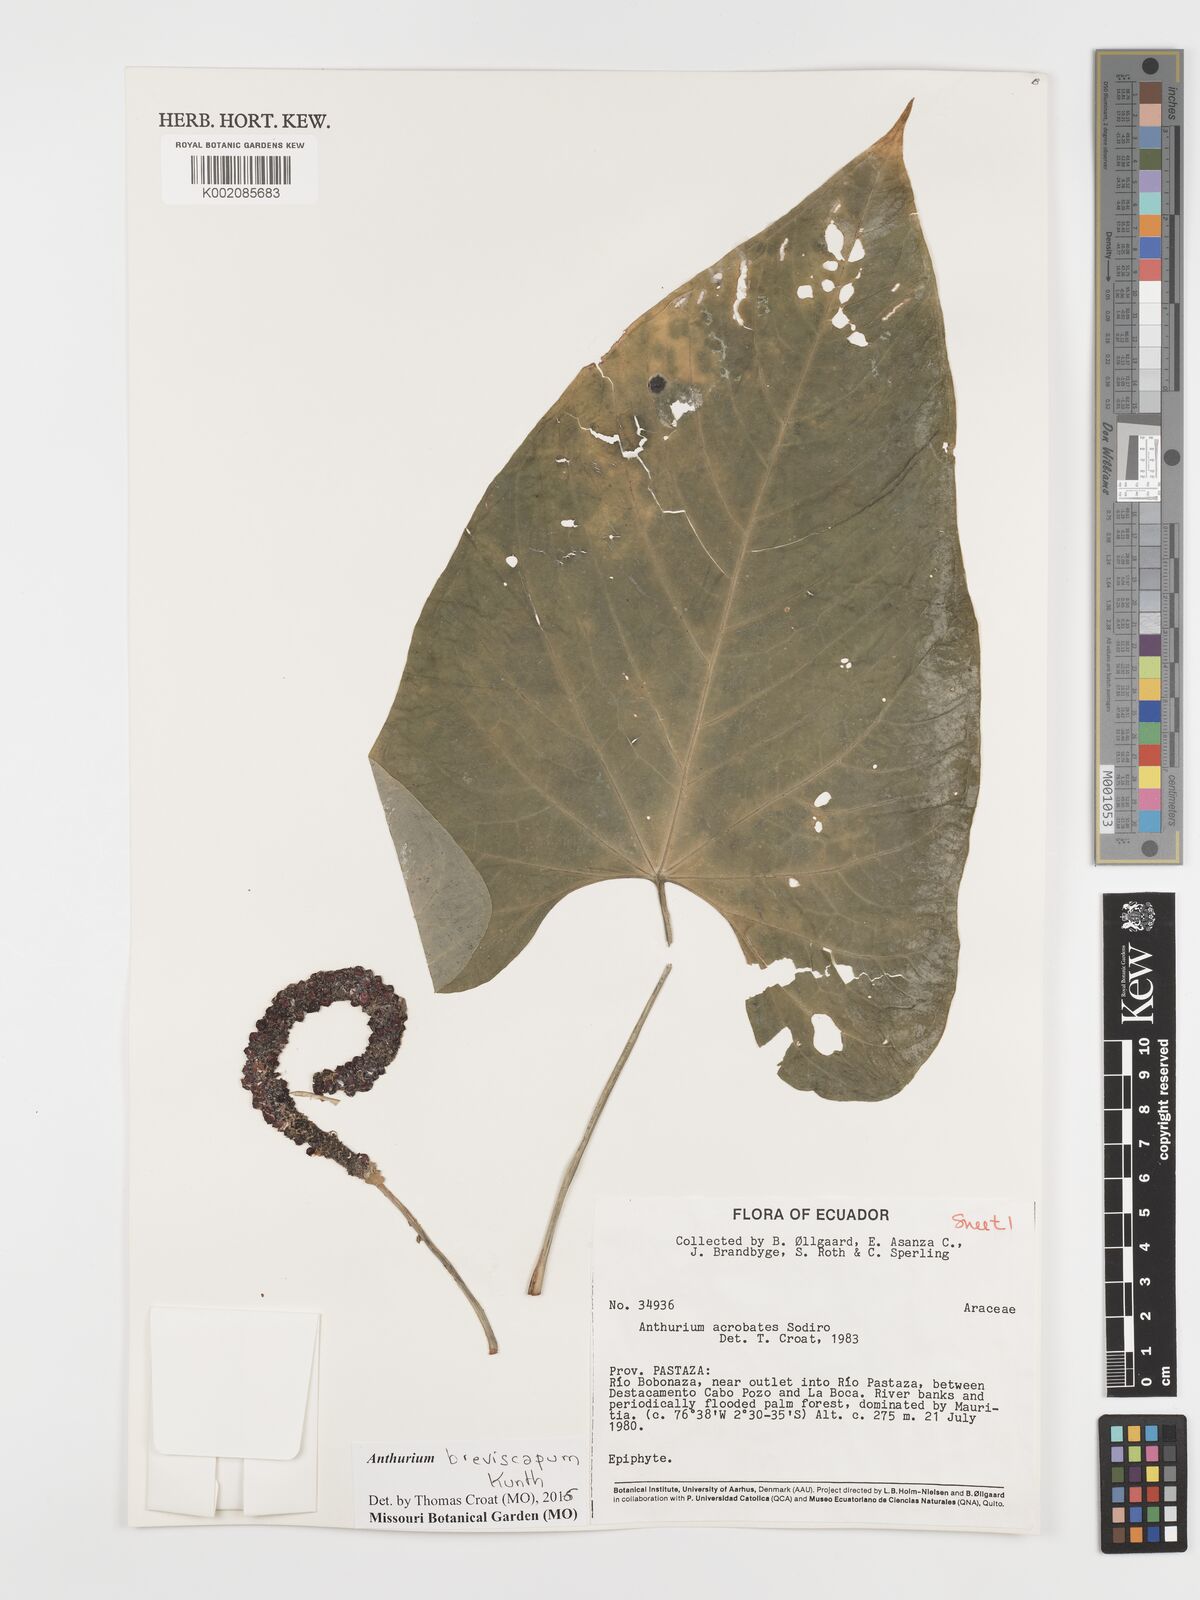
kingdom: Plantae
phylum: Tracheophyta
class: Liliopsida
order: Alismatales
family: Araceae
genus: Anthurium
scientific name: Anthurium breviscapum
